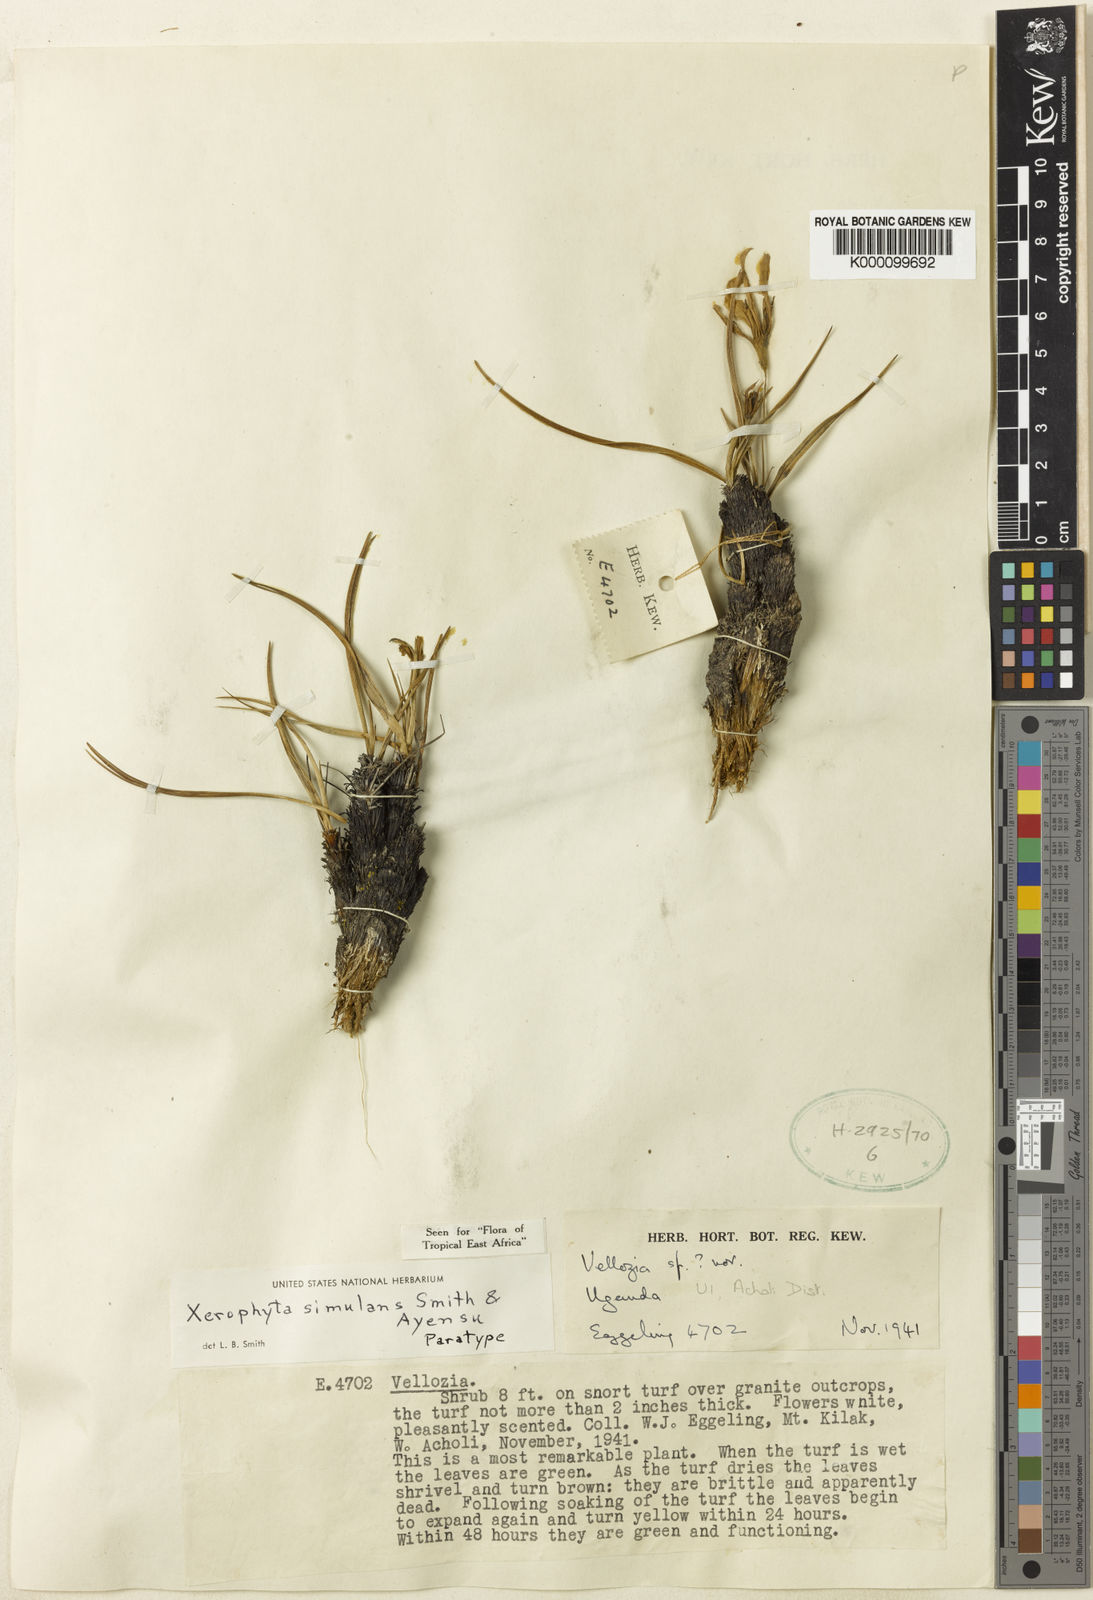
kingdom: Plantae
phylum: Tracheophyta
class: Liliopsida
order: Pandanales
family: Velloziaceae
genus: Xerophyta
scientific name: Xerophyta simulans
